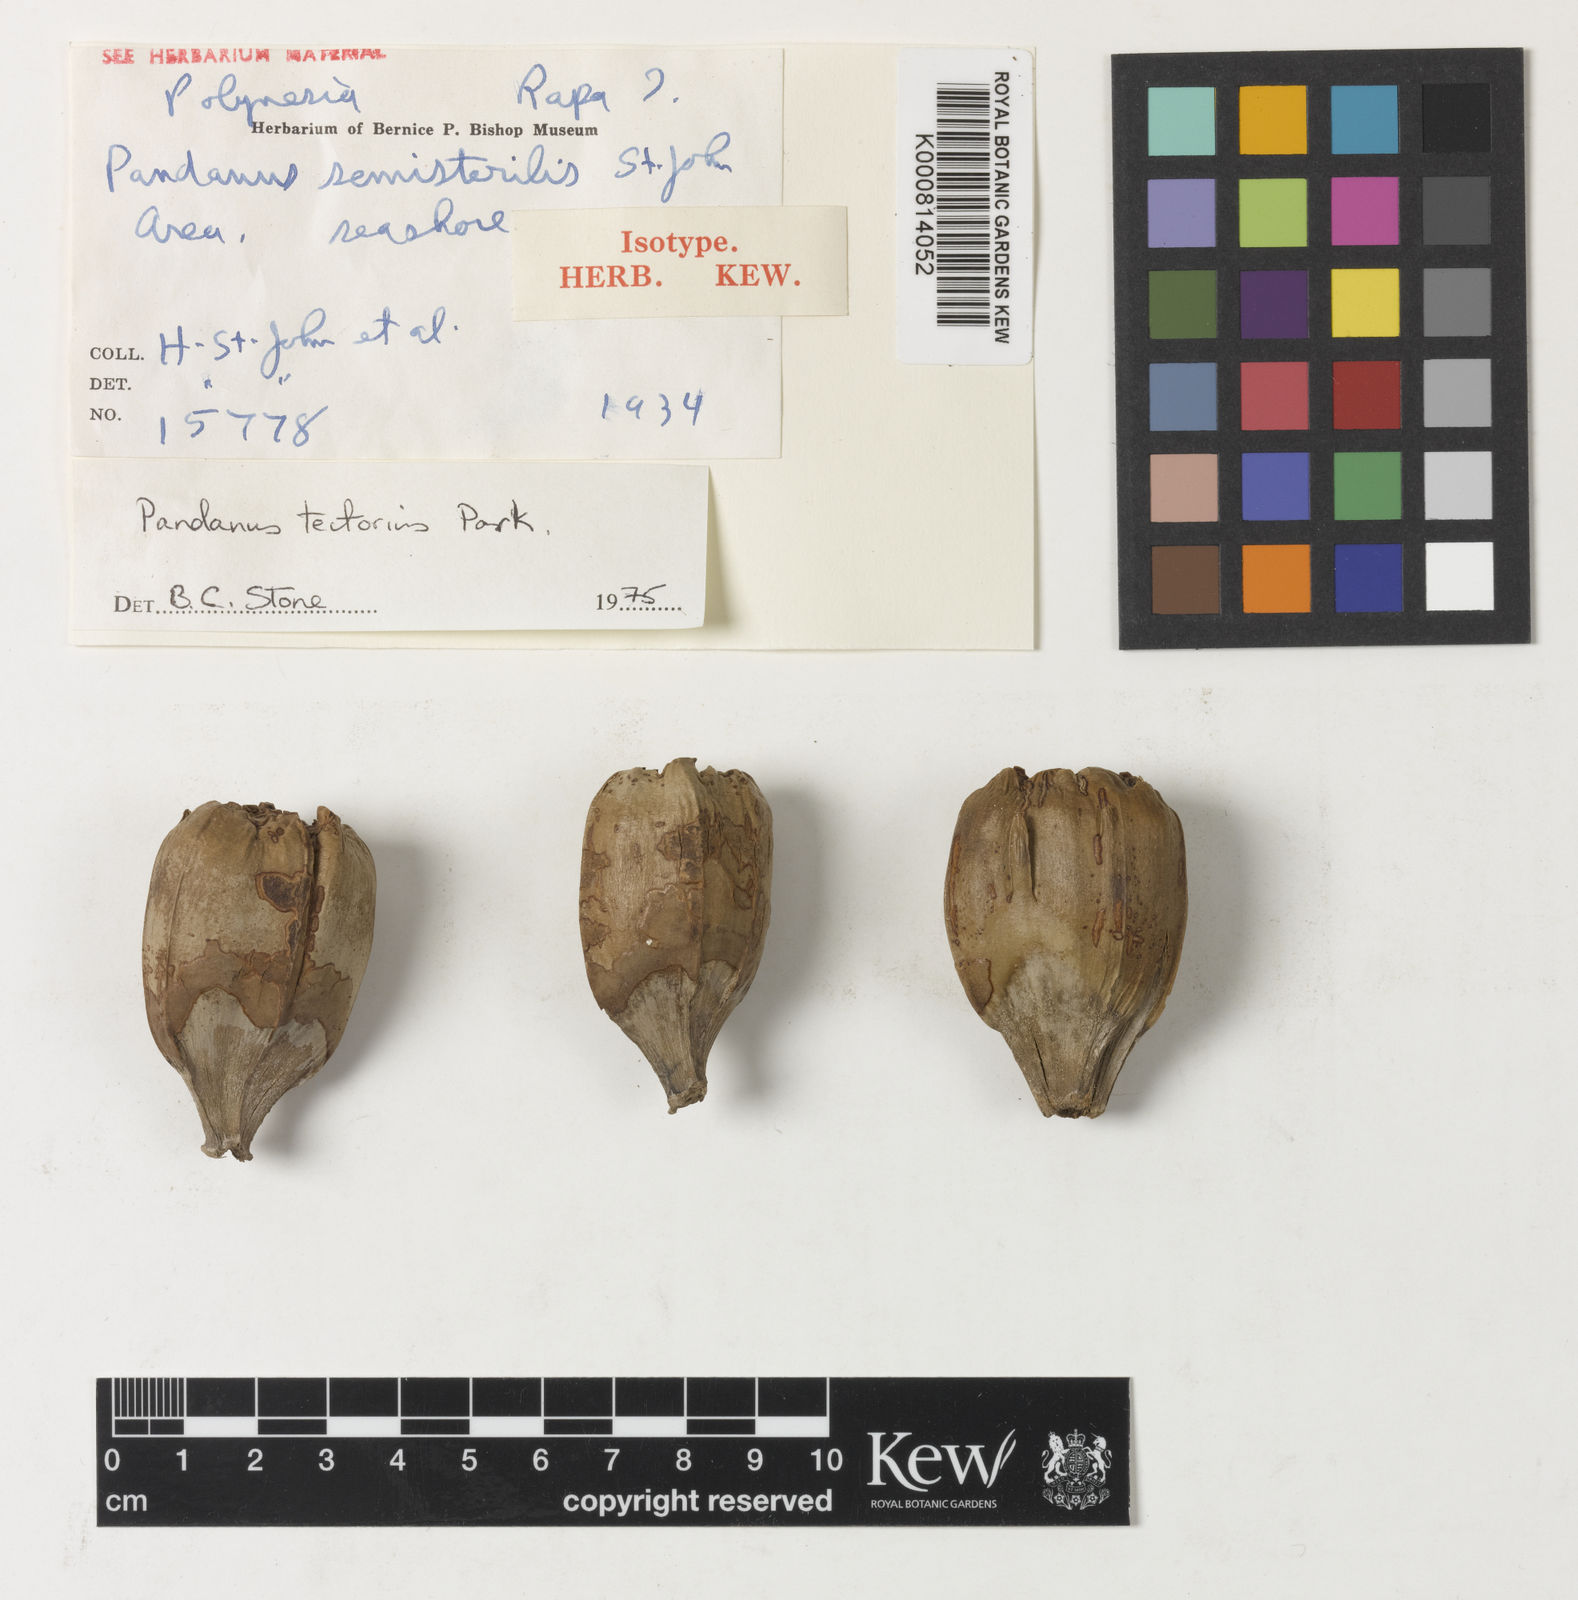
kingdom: Plantae
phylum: Tracheophyta
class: Liliopsida
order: Pandanales
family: Pandanaceae
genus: Pandanus
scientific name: Pandanus
